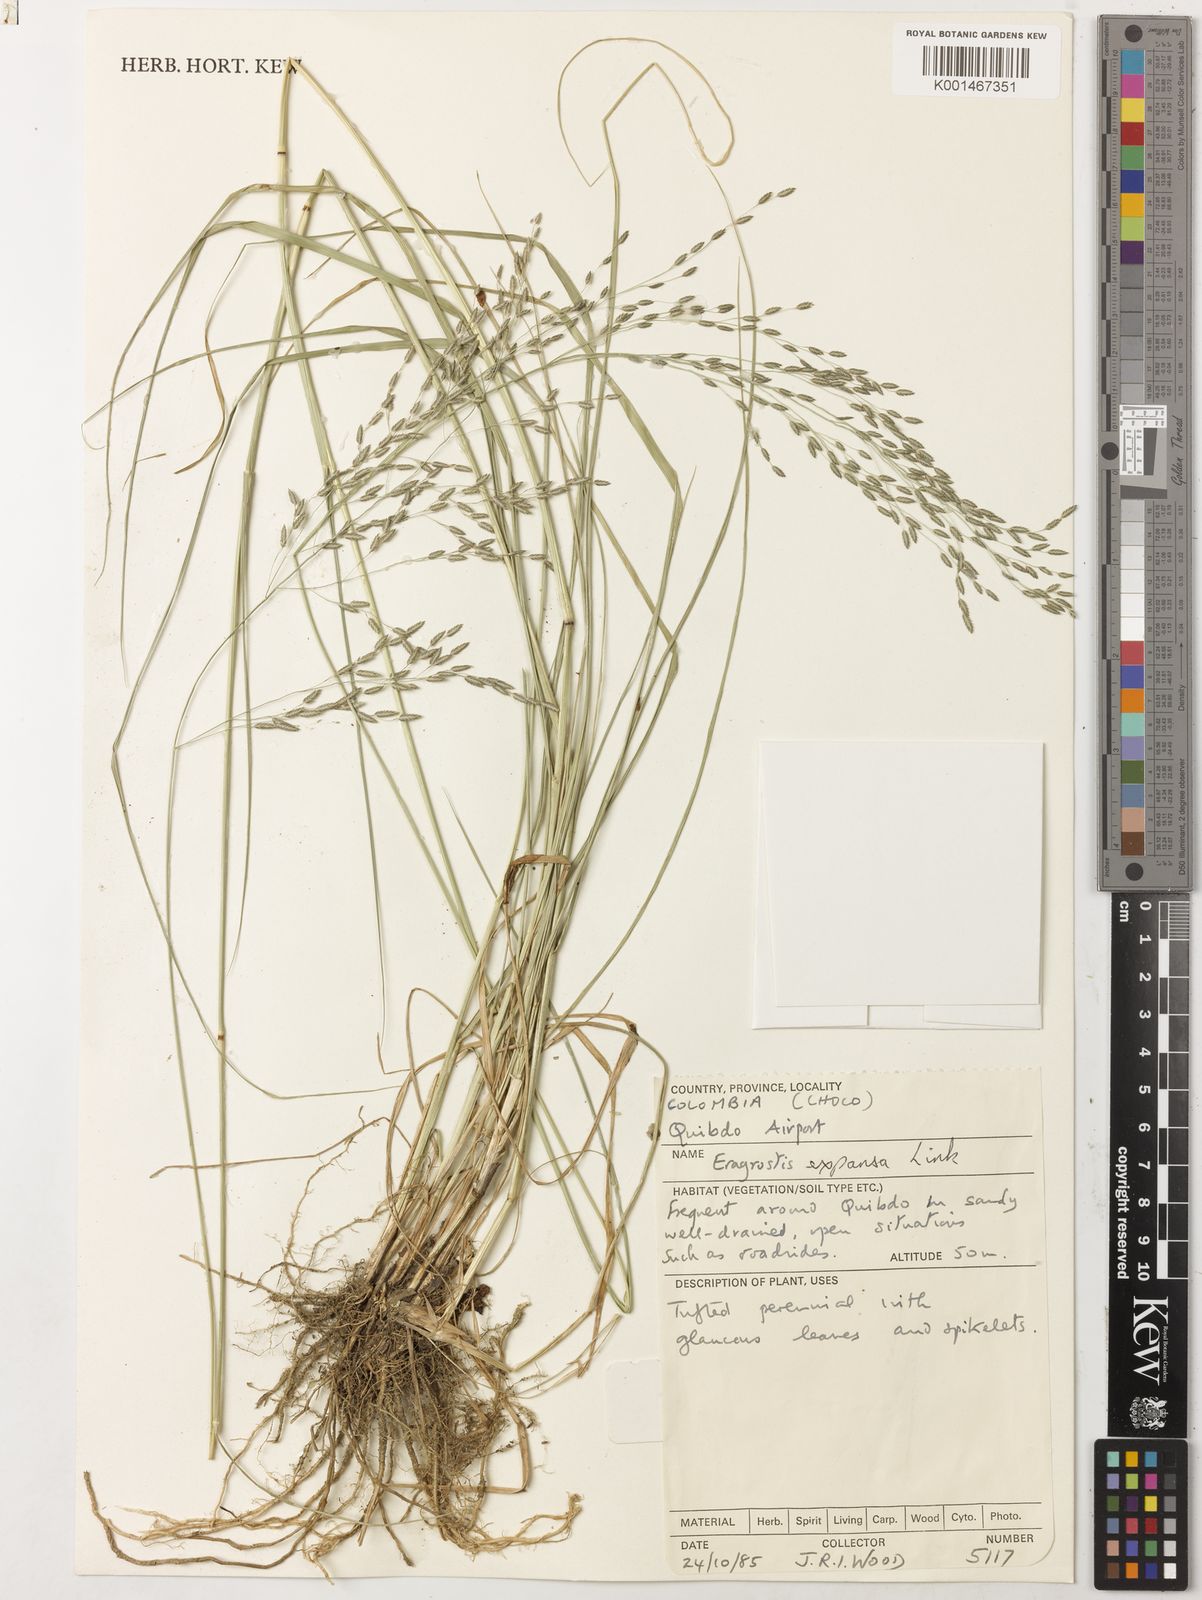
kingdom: Plantae
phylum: Tracheophyta
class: Liliopsida
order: Poales
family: Poaceae
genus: Eragrostis
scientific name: Eragrostis bahiensis
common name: Bahia lovegrass
